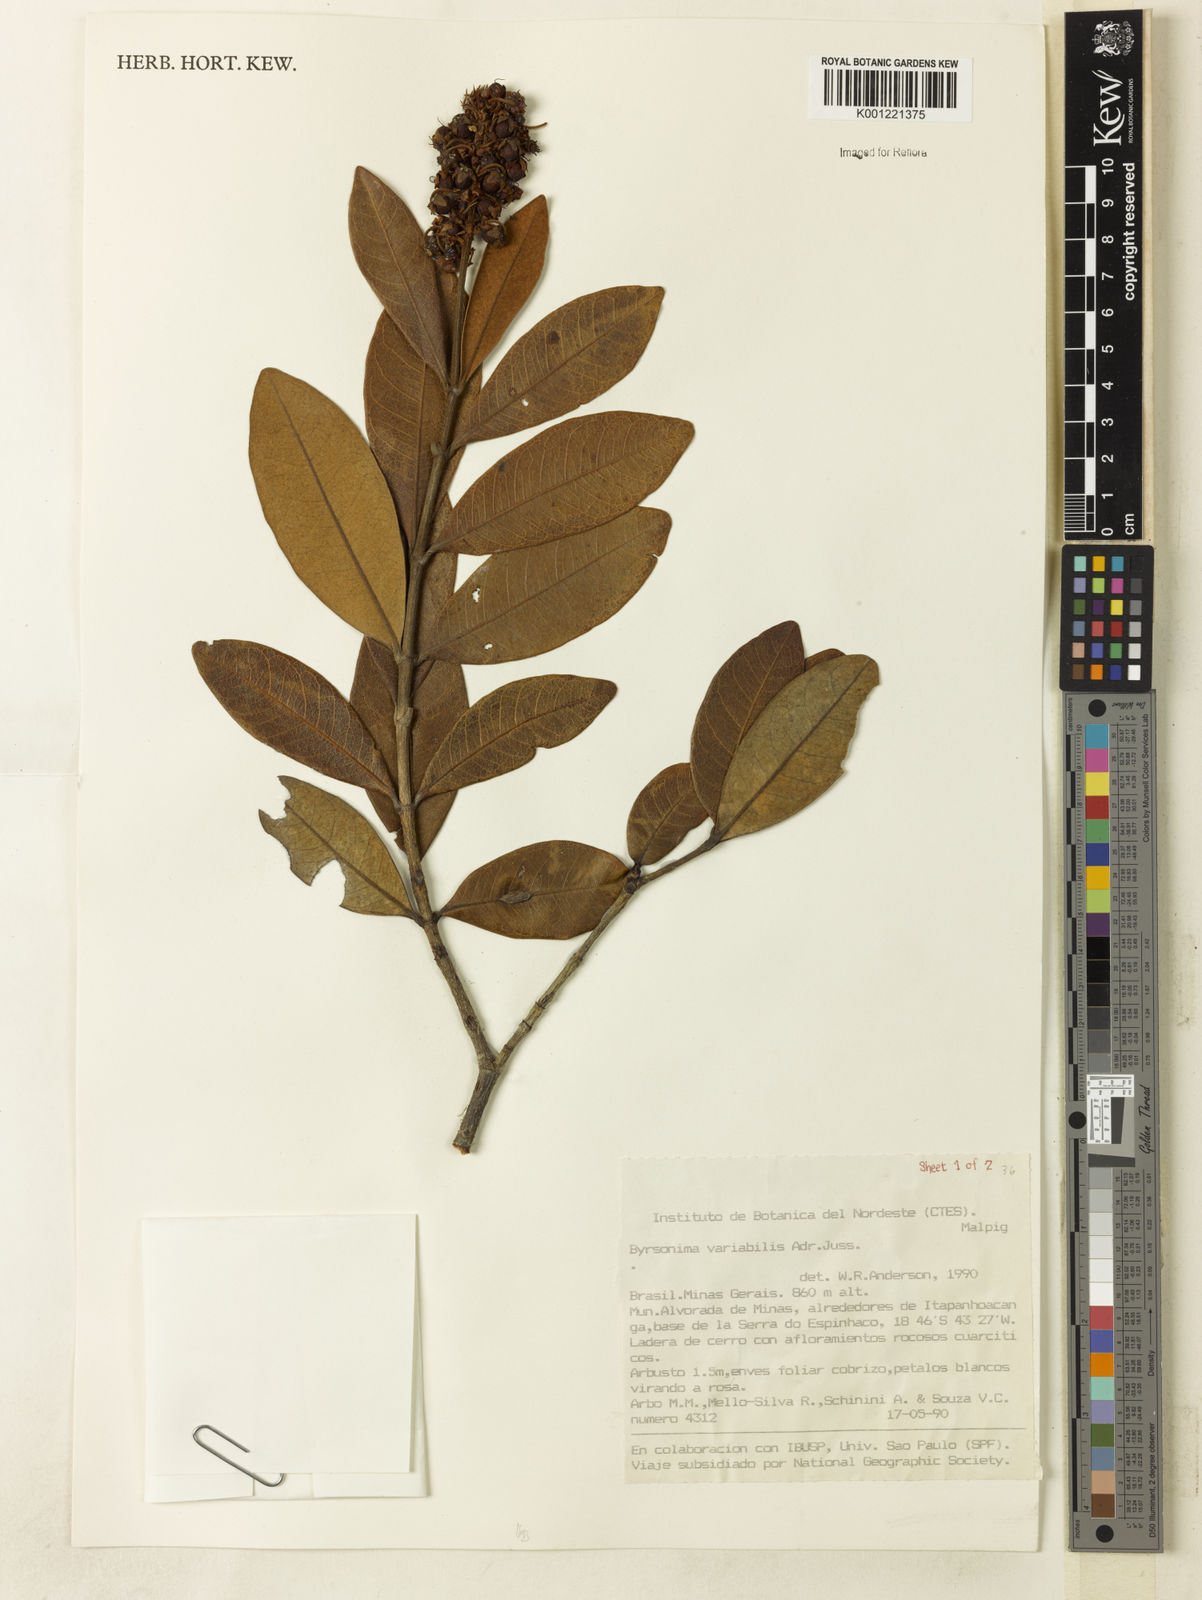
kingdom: Plantae
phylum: Tracheophyta
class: Magnoliopsida
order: Malpighiales
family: Malpighiaceae
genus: Byrsonima
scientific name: Byrsonima variabilis
